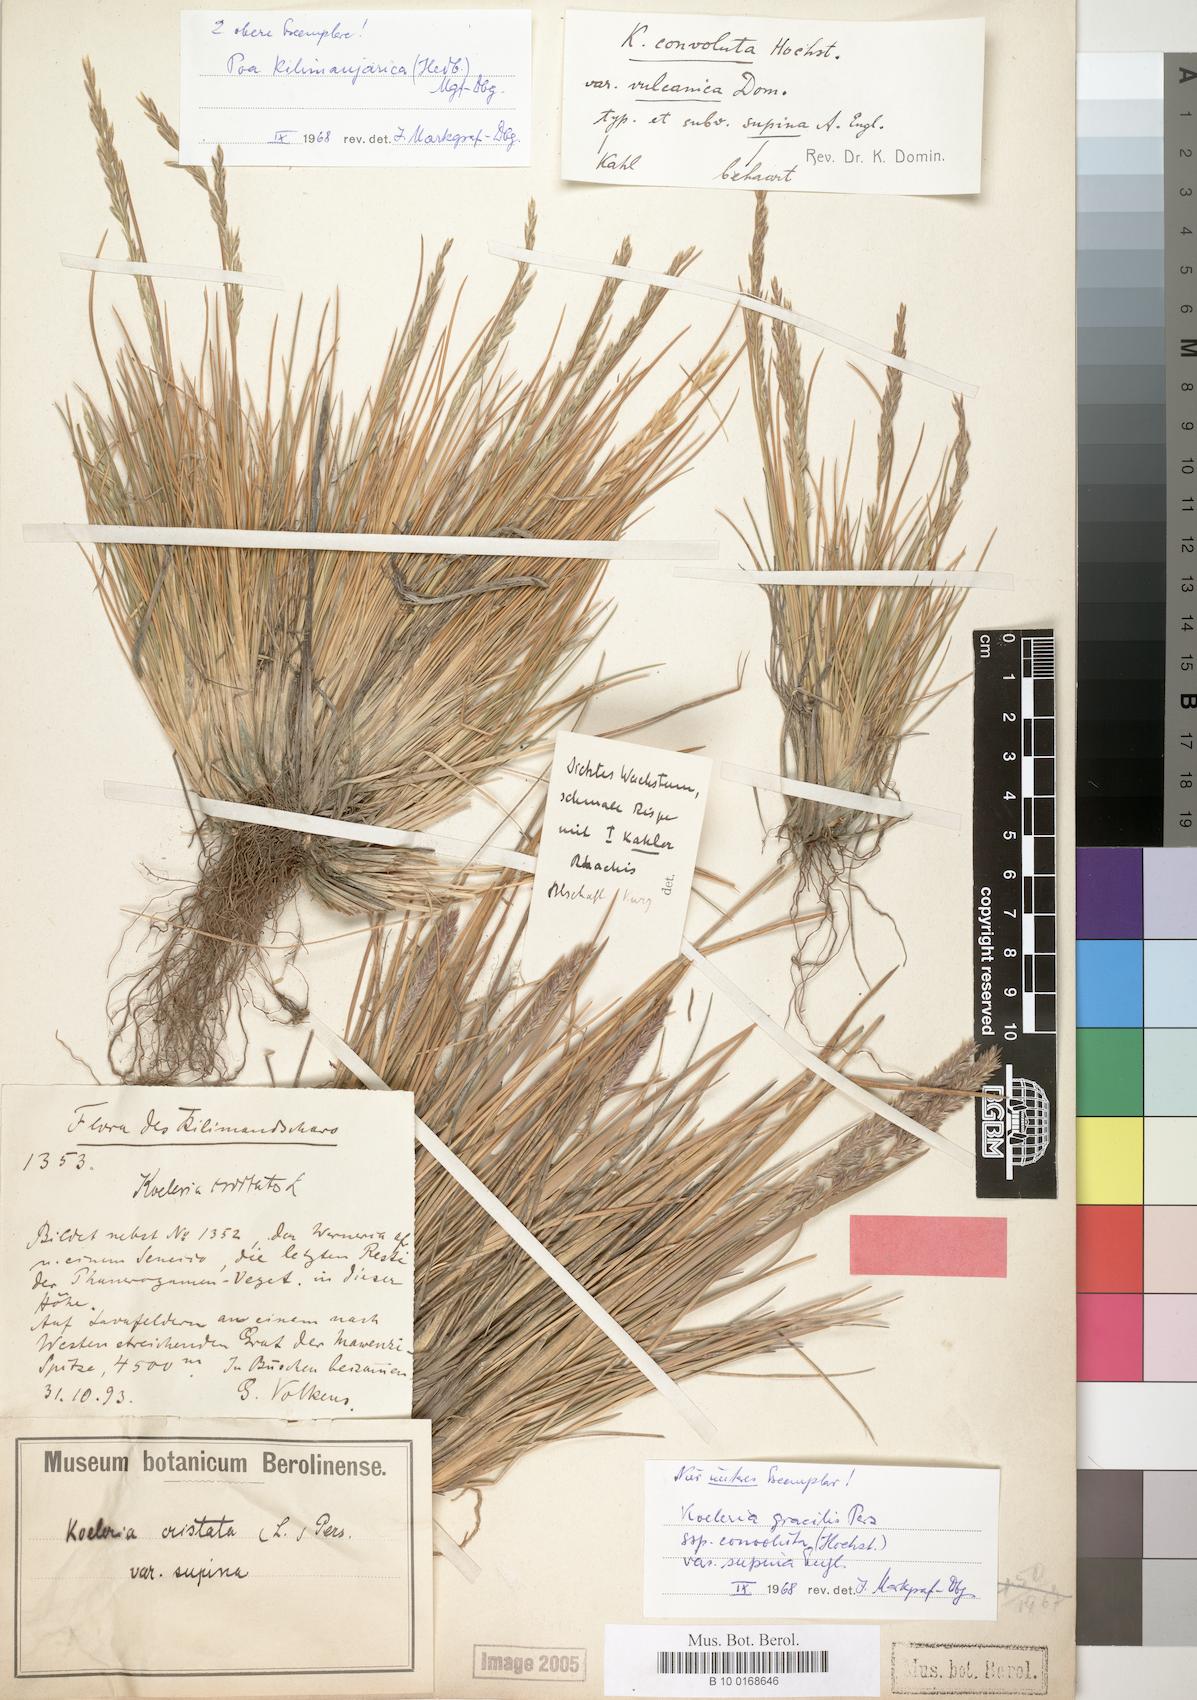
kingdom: Plantae
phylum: Tracheophyta
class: Liliopsida
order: Poales
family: Poaceae
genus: Poa
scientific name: Poa kilimanjarica
